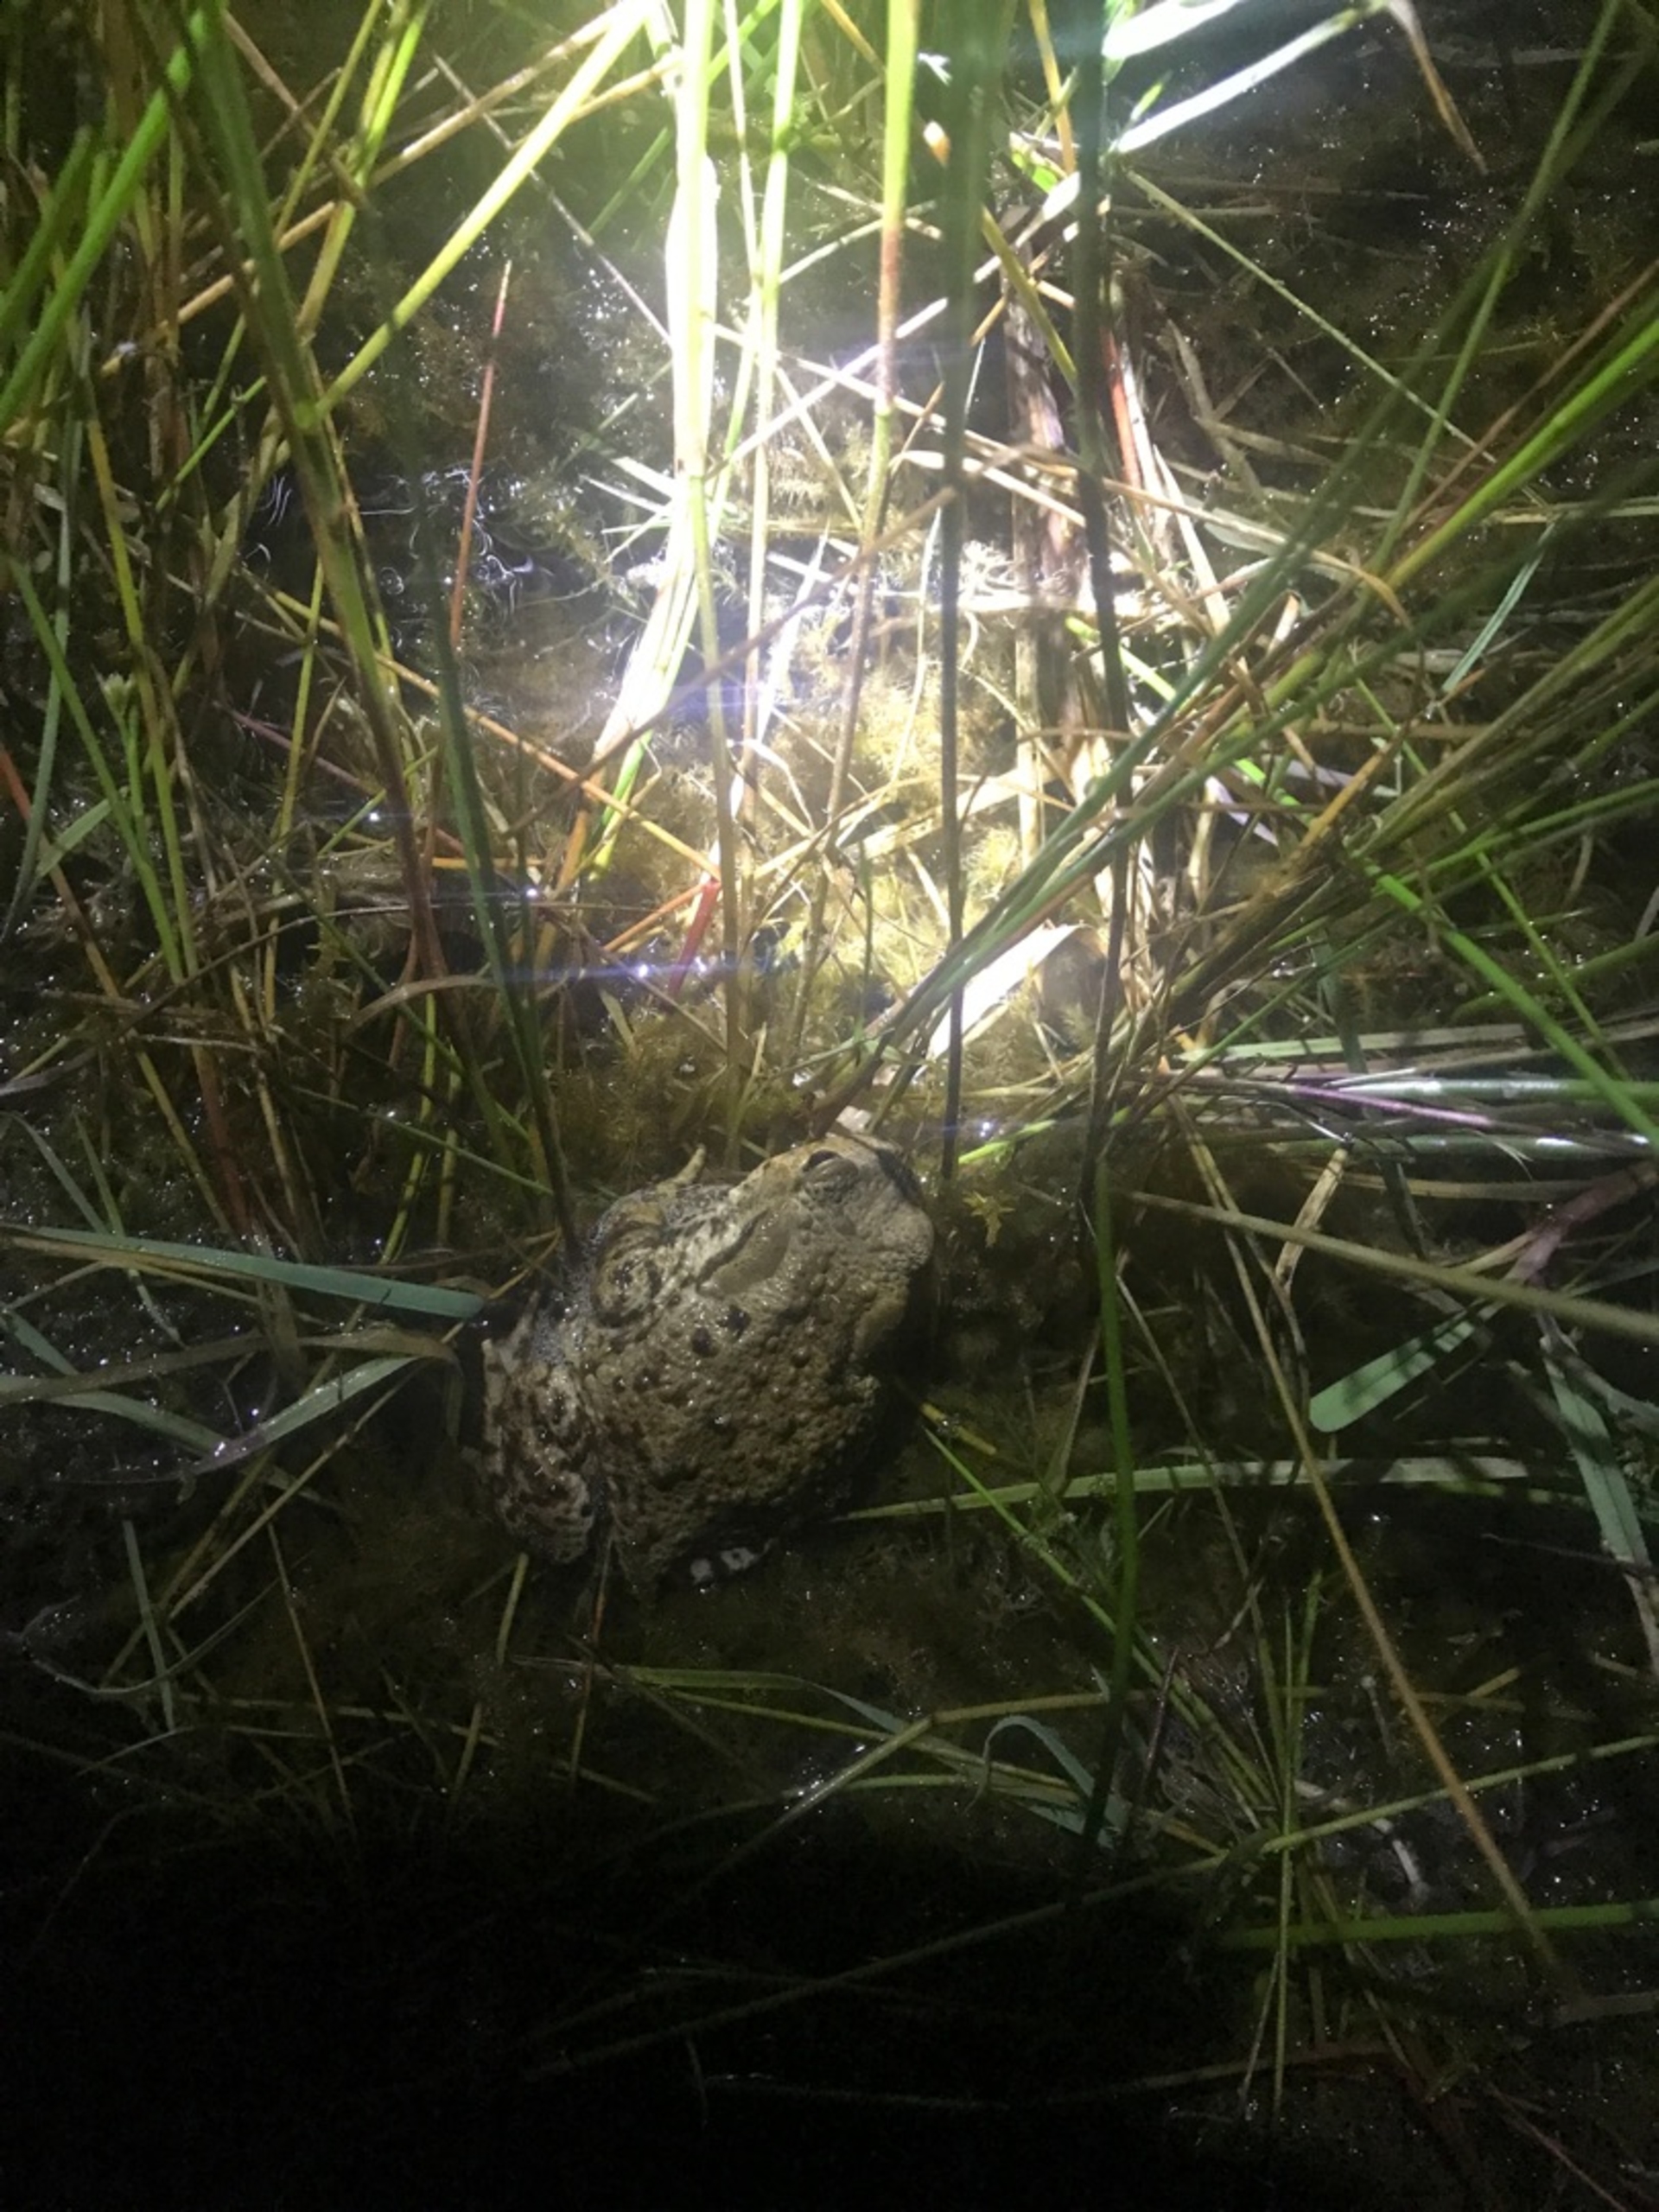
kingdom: Animalia
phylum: Chordata
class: Amphibia
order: Anura
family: Bufonidae
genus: Bufo
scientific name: Bufo bufo
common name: Skrubtudse
